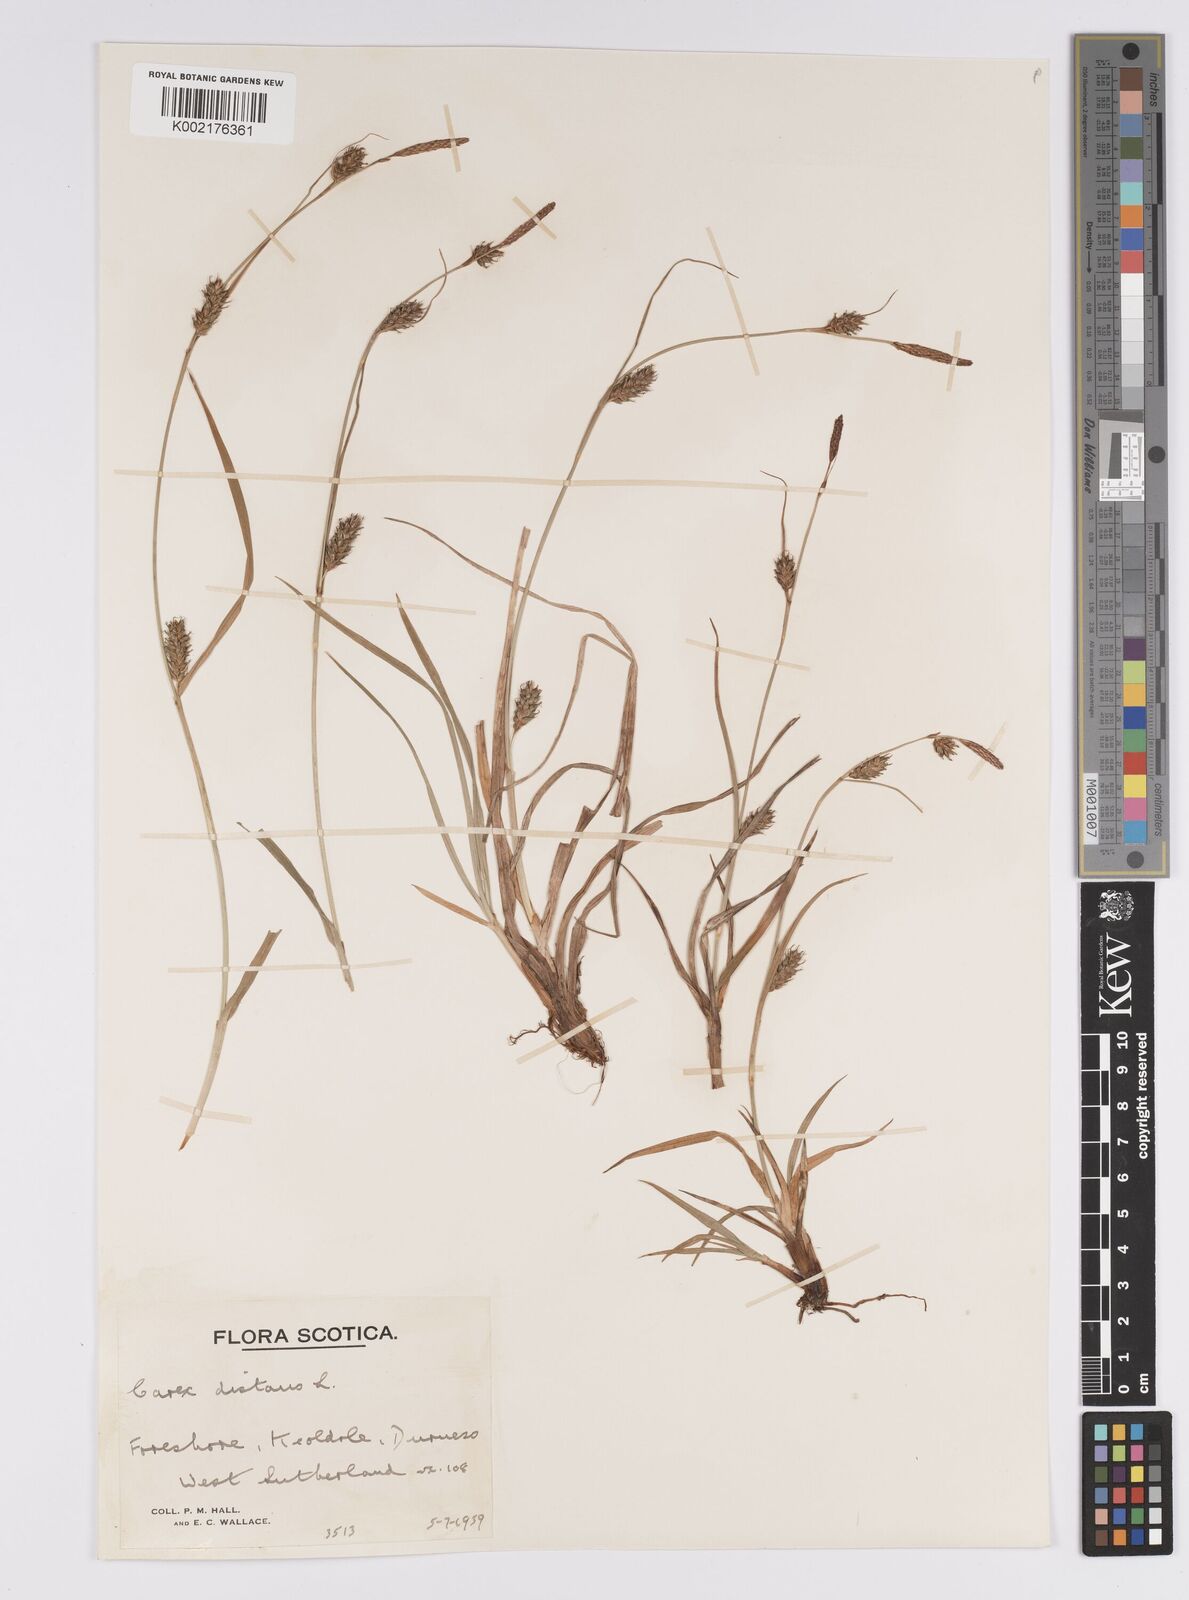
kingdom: Plantae
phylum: Tracheophyta
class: Liliopsida
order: Poales
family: Cyperaceae
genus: Carex
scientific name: Carex distans
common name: Distant sedge
